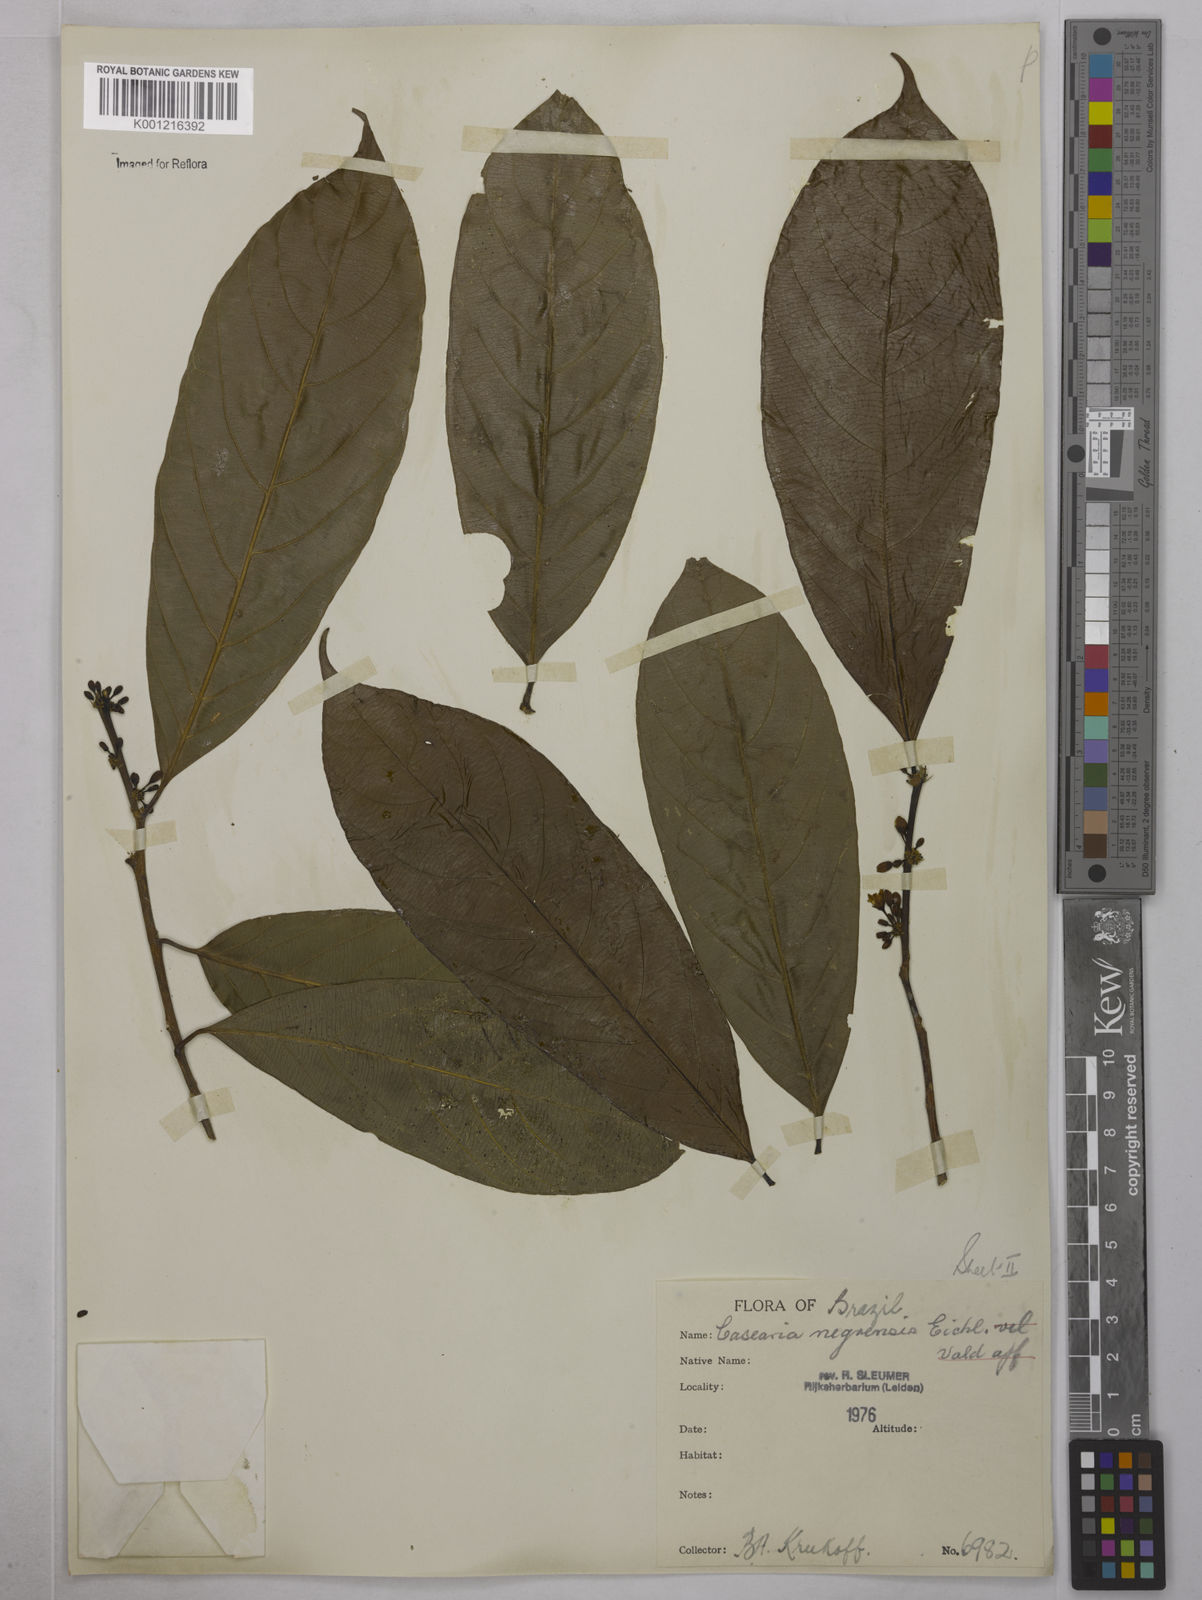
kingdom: Plantae
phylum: Tracheophyta
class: Magnoliopsida
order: Malpighiales
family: Salicaceae
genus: Casearia
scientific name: Casearia negrensis
